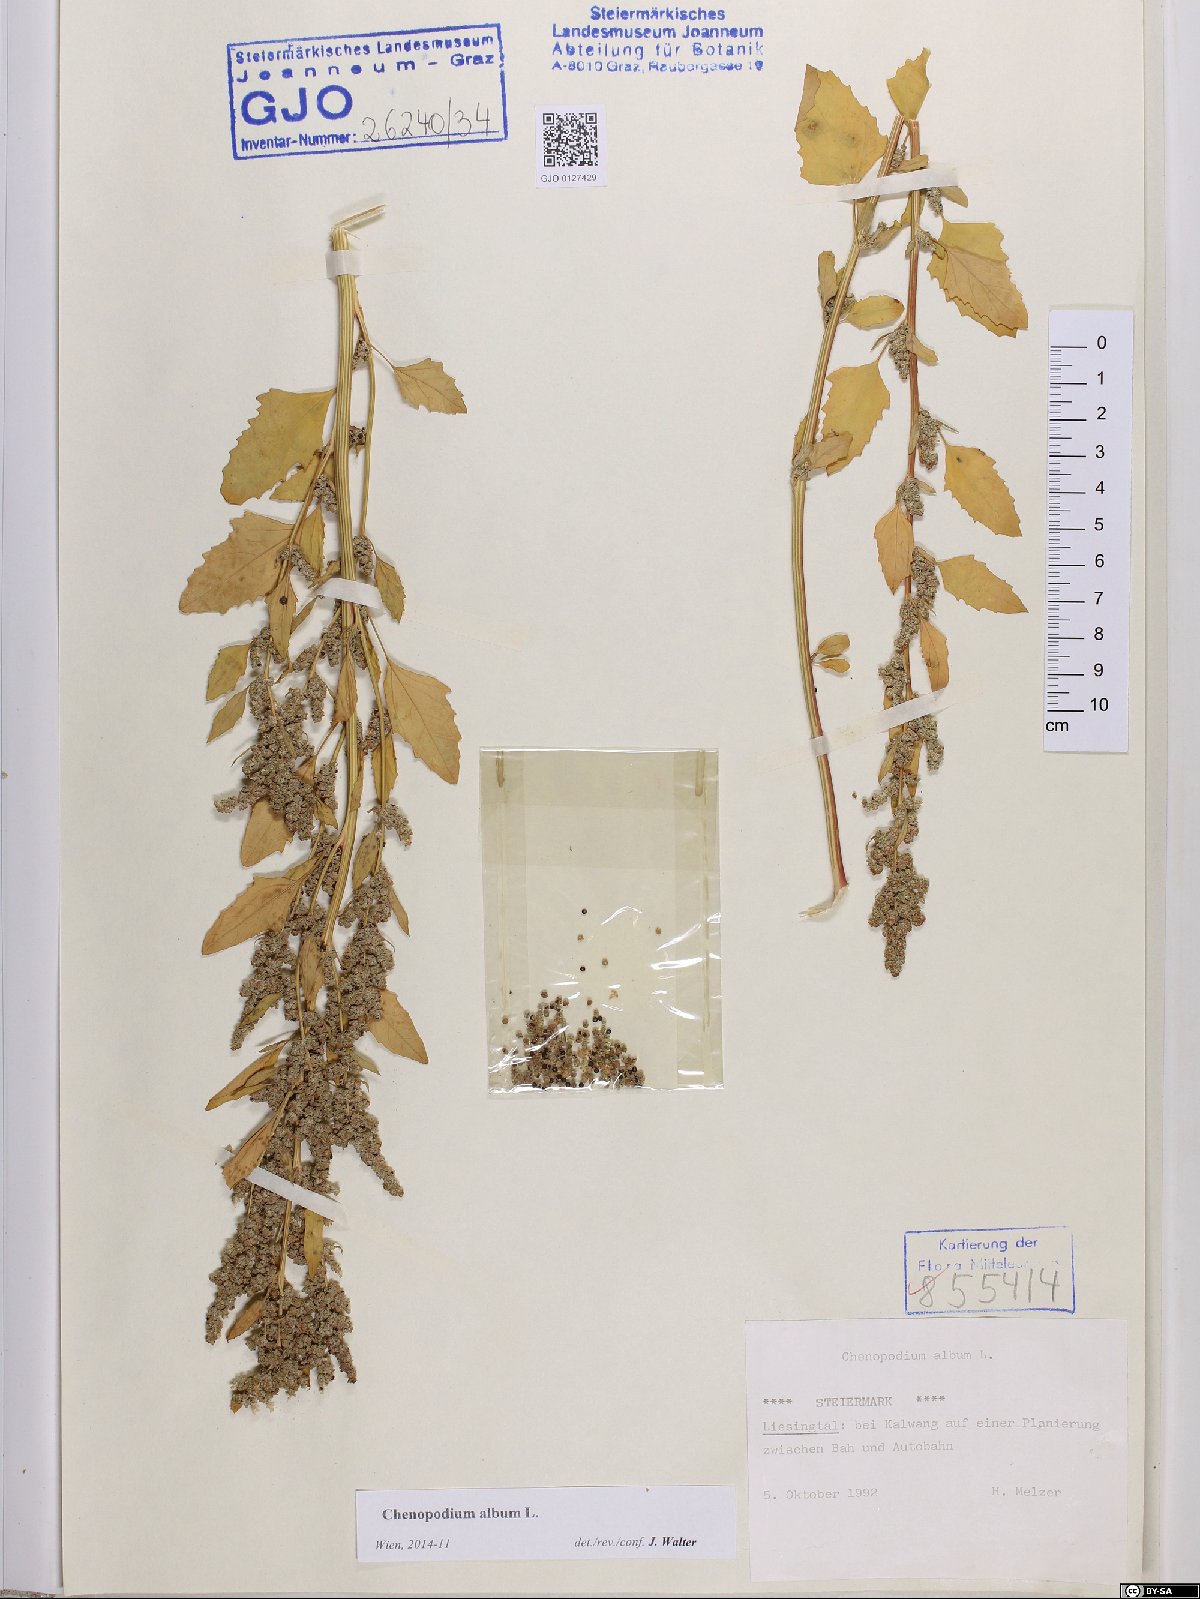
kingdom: Plantae
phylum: Tracheophyta
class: Magnoliopsida
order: Caryophyllales
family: Amaranthaceae
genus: Chenopodium
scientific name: Chenopodium album
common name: Fat-hen
